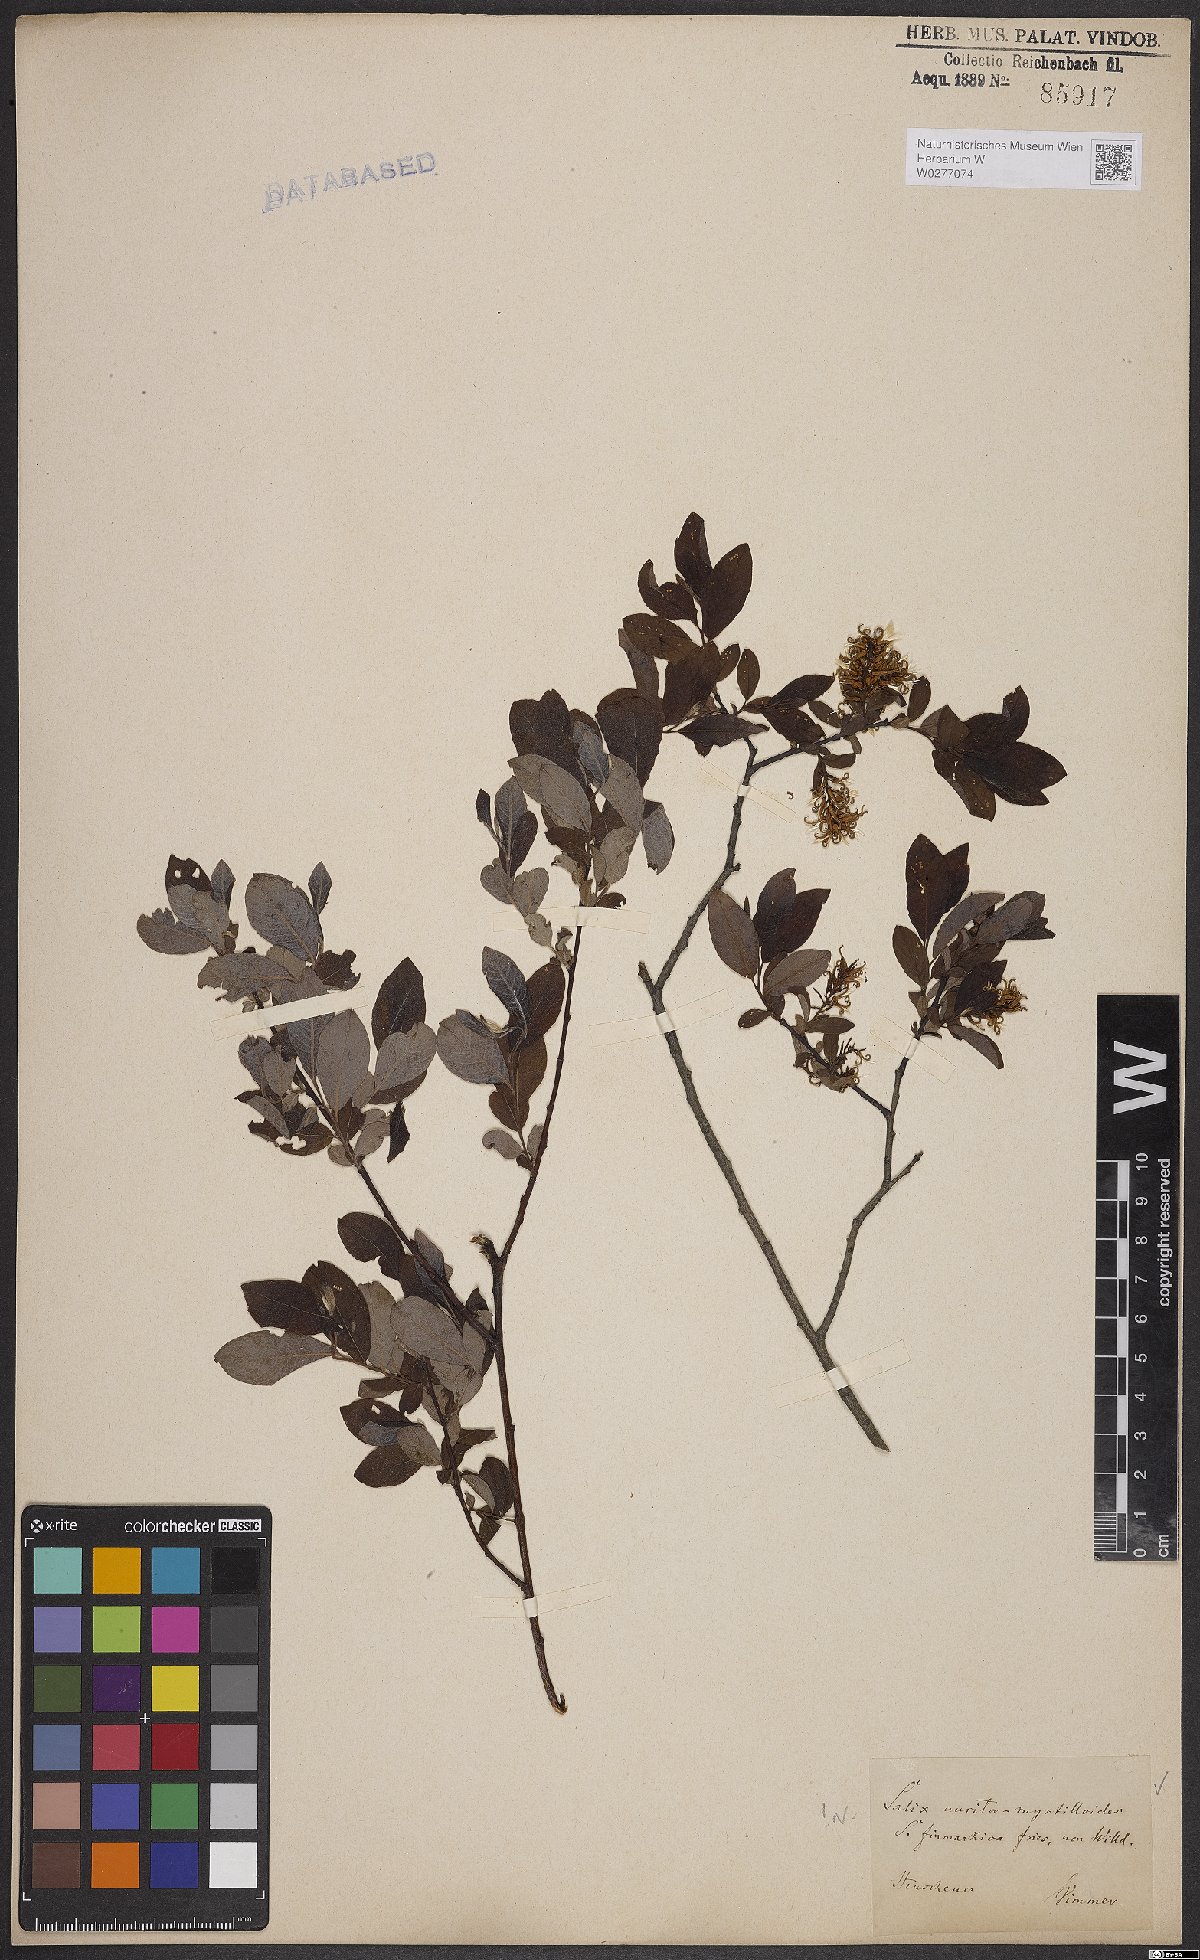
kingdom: Plantae
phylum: Tracheophyta
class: Magnoliopsida
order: Malpighiales
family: Salicaceae
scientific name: Salicaceae
